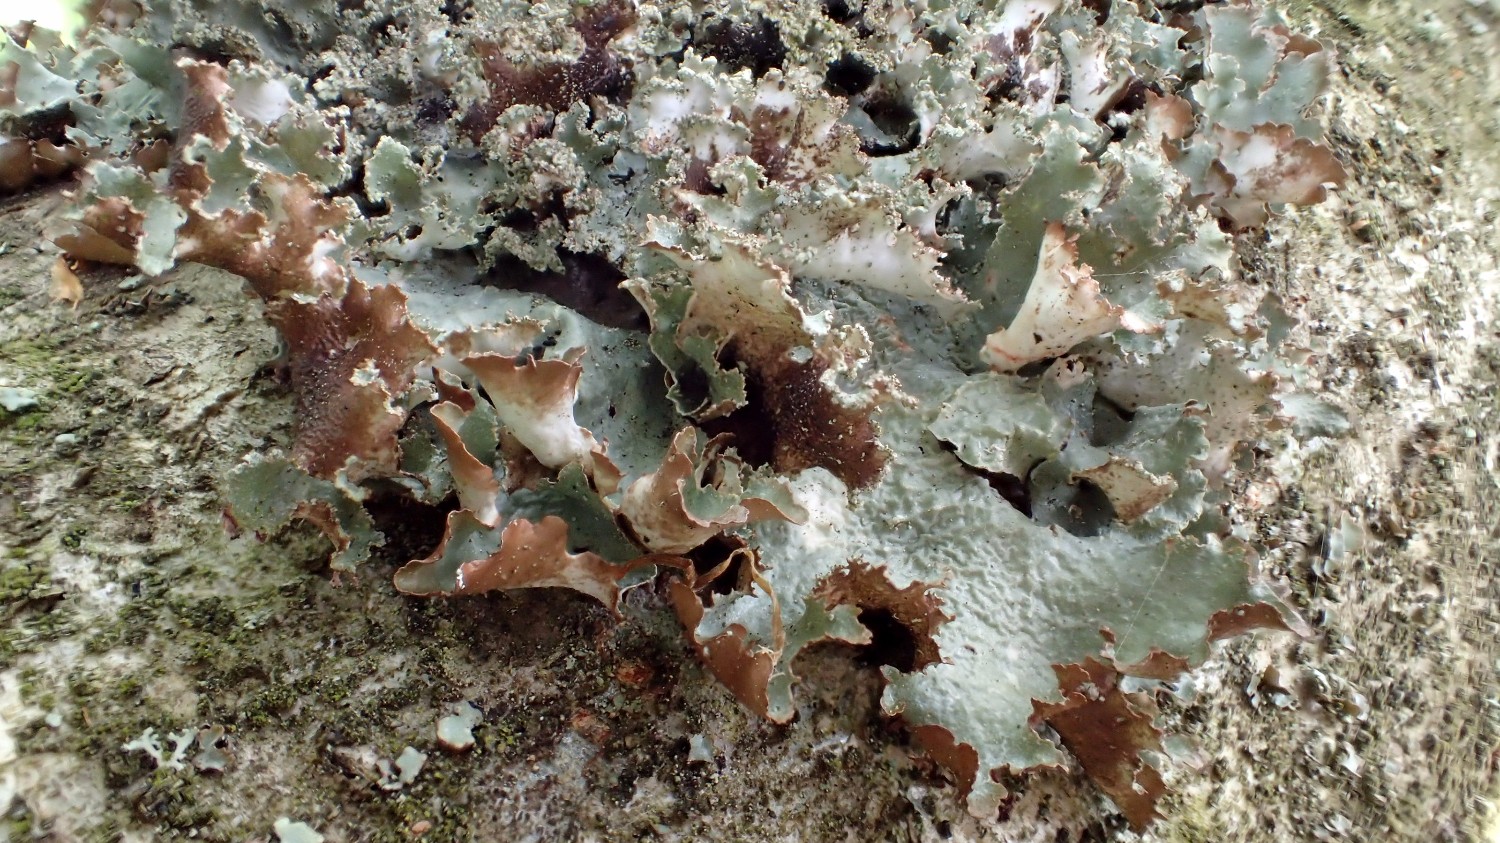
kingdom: Fungi
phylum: Ascomycota
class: Lecanoromycetes
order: Lecanorales
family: Parmeliaceae
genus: Platismatia
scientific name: Platismatia glauca
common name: blågrå papirlav
